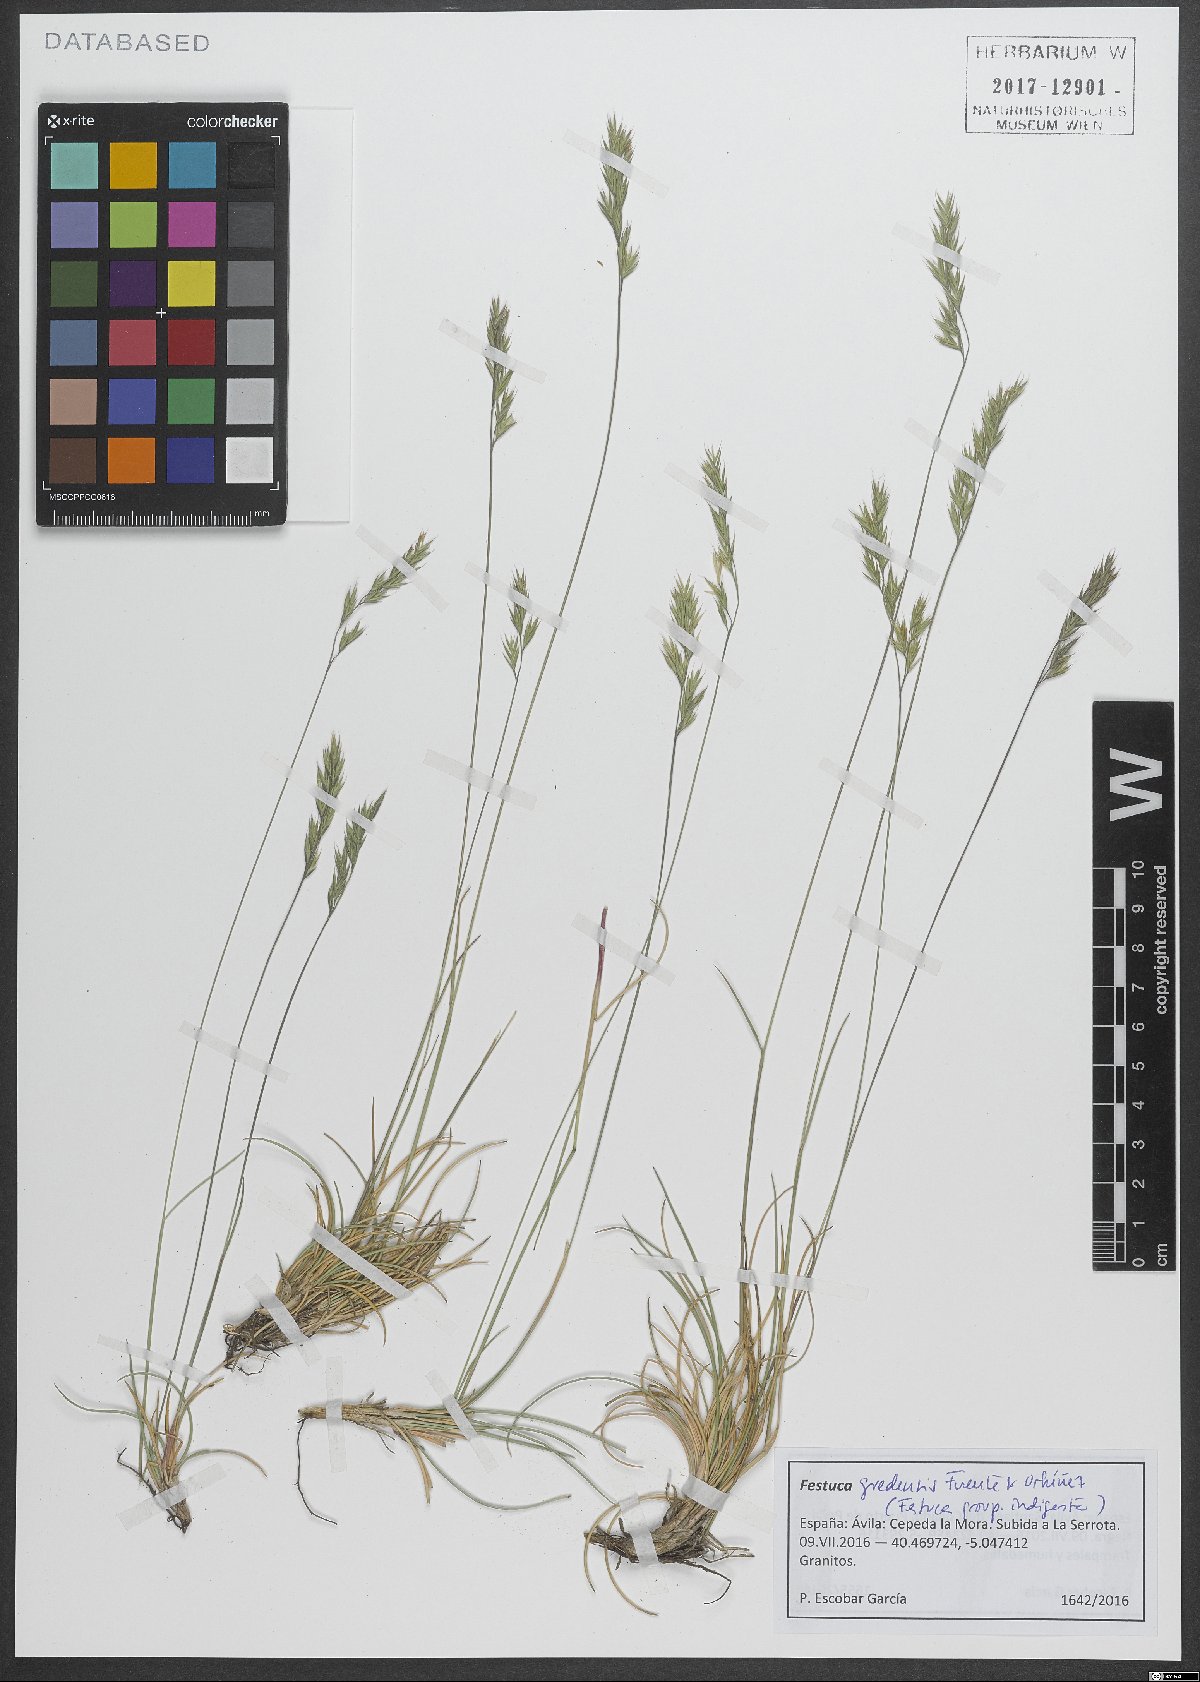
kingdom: Plantae
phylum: Tracheophyta
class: Liliopsida
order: Poales
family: Poaceae
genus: Festuca
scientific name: Festuca gredensis
